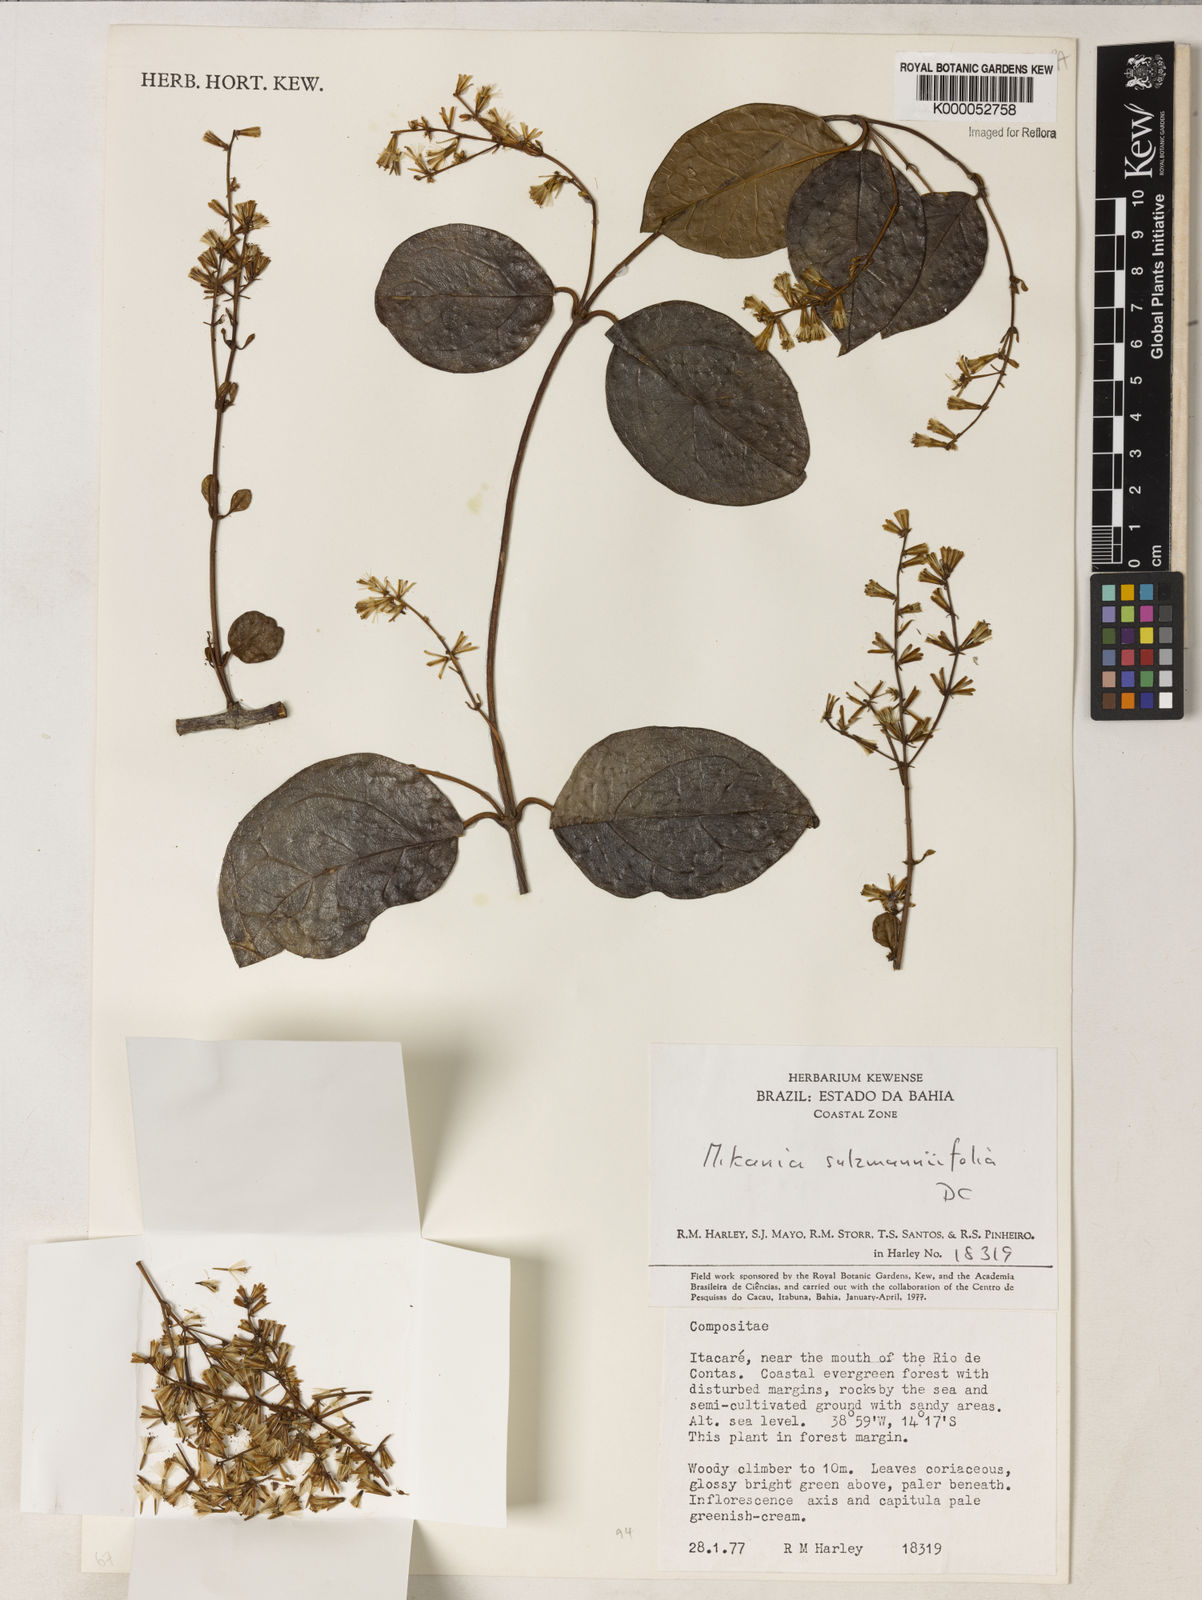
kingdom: Plantae
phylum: Tracheophyta
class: Magnoliopsida
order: Asterales
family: Asteraceae
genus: Mikania
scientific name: Mikania salzmanniifolia
